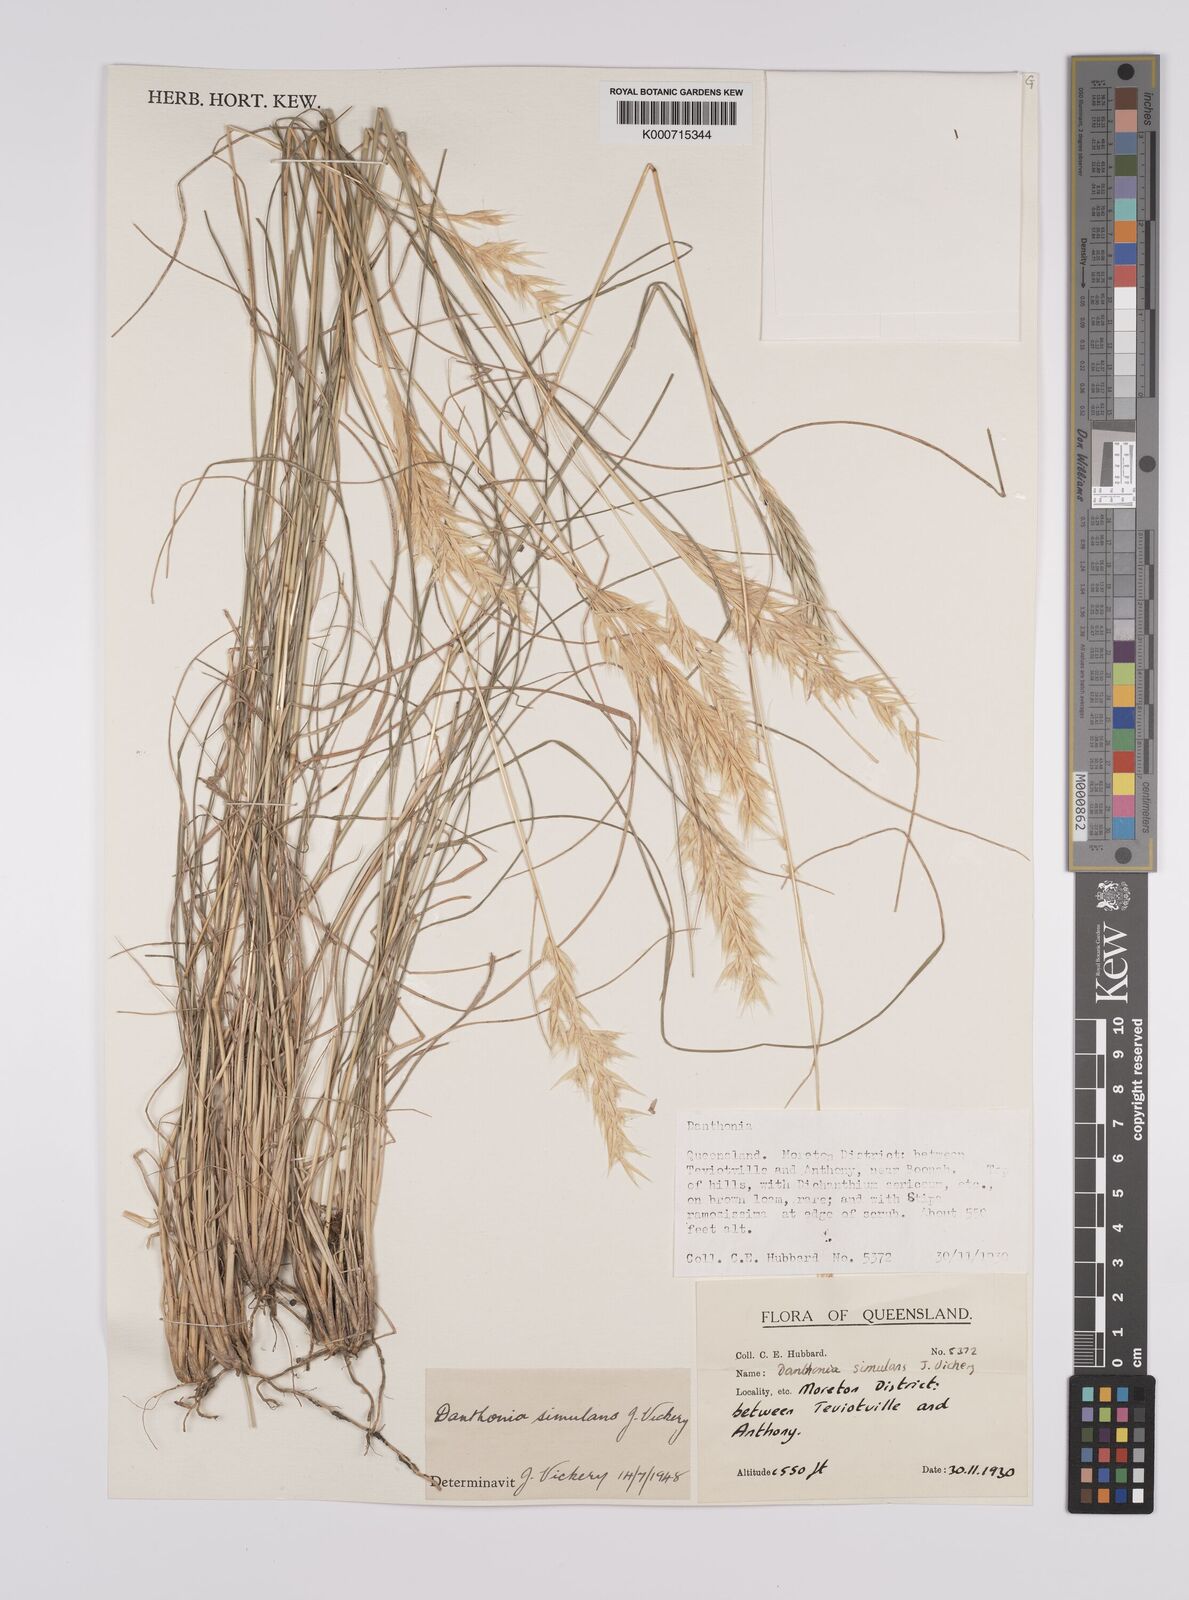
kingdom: Plantae
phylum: Tracheophyta
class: Liliopsida
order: Poales
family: Poaceae
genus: Rytidosperma
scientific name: Rytidosperma bipartitum
